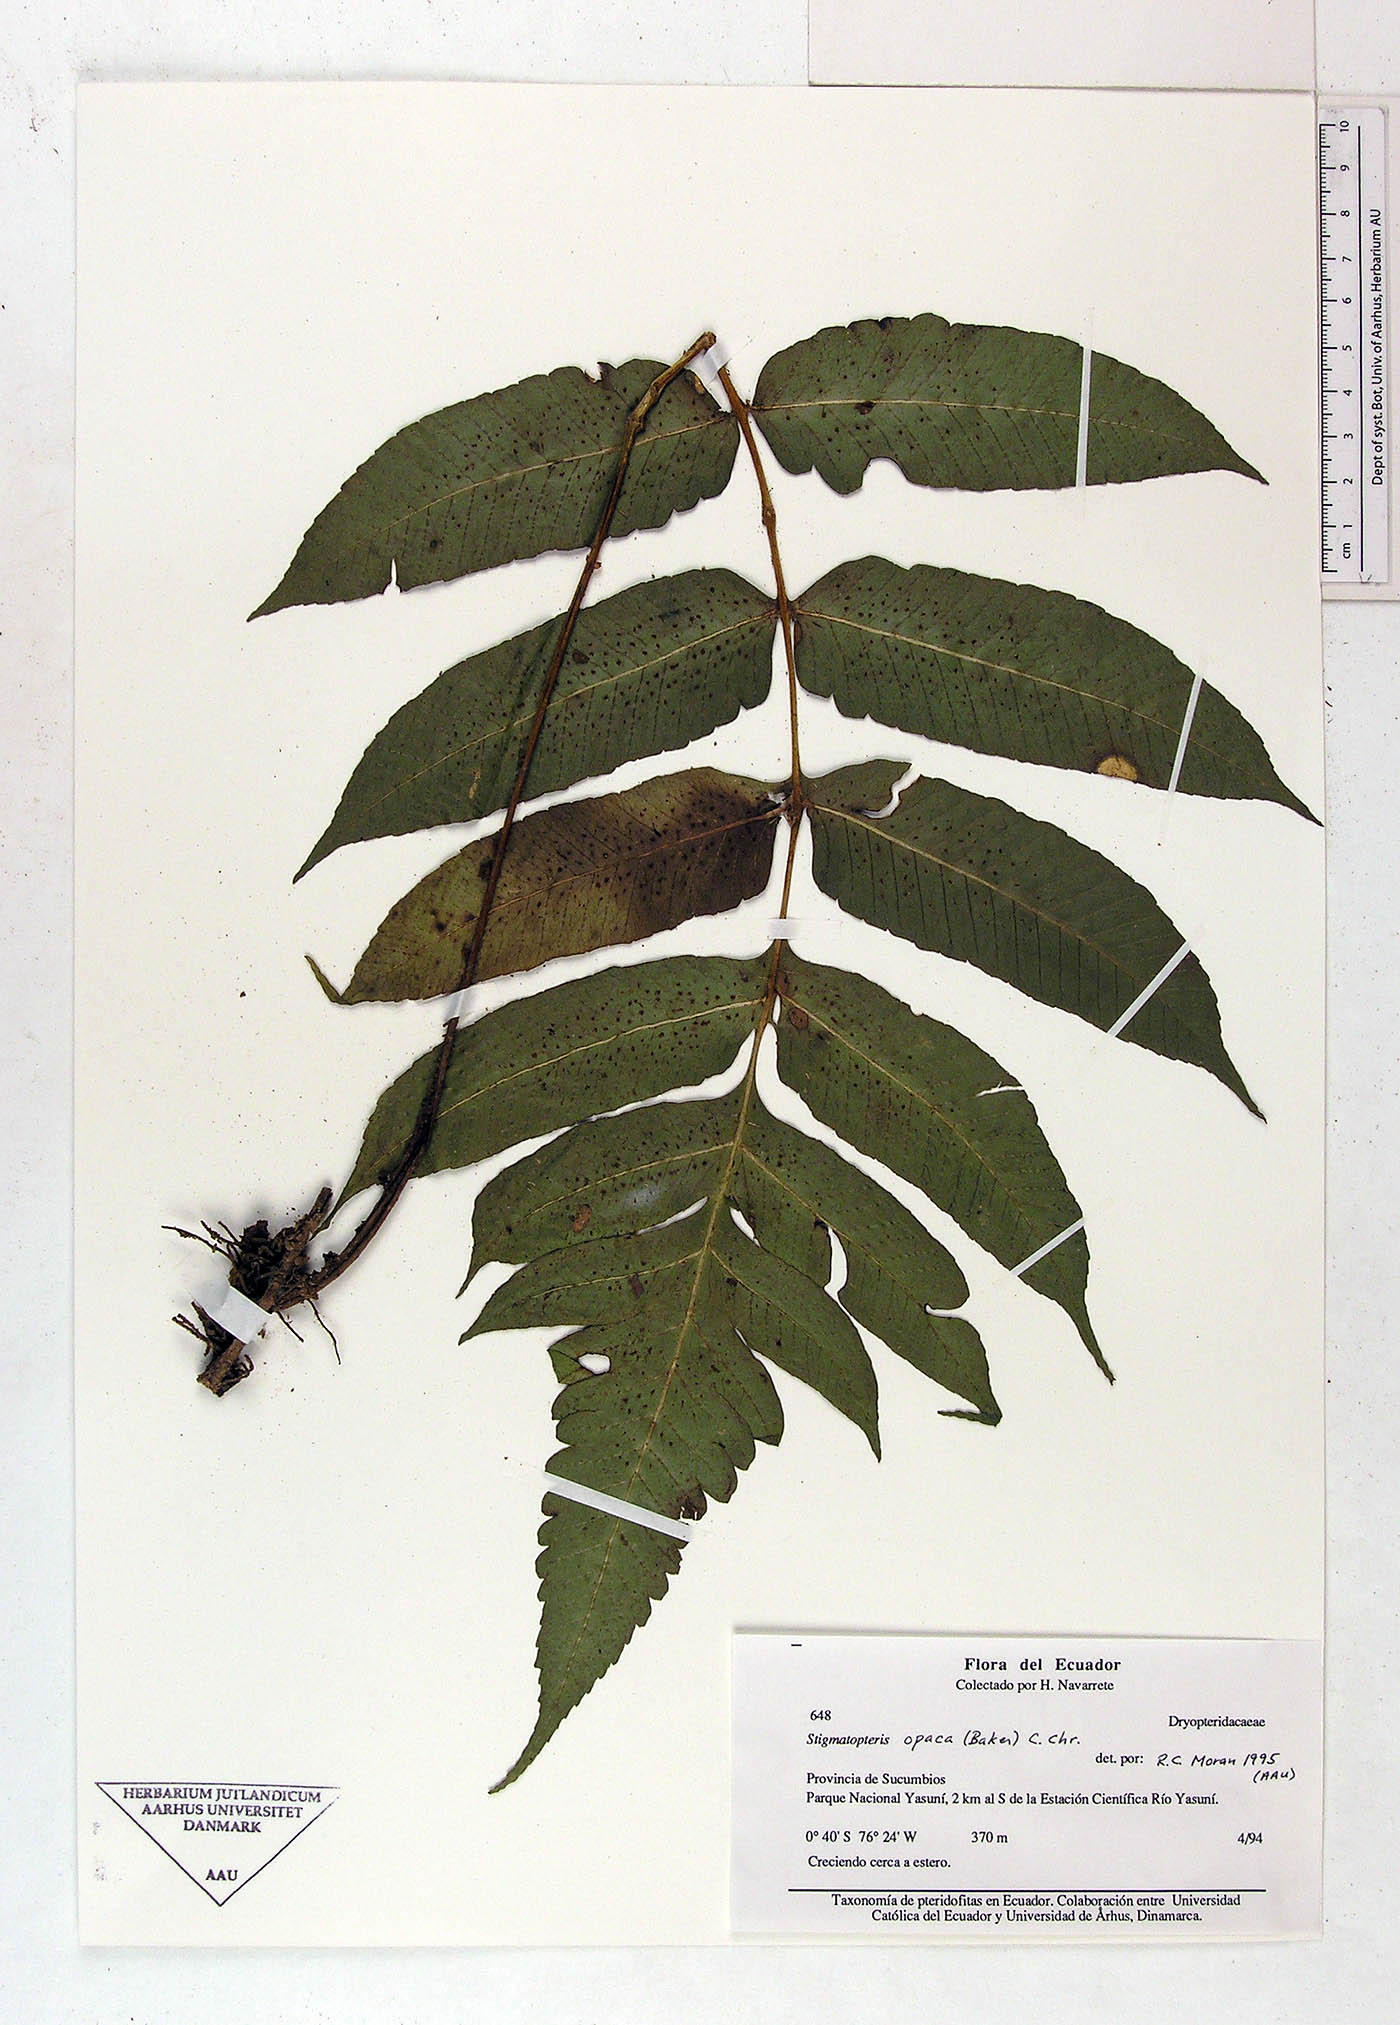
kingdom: Plantae
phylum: Tracheophyta
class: Polypodiopsida
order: Polypodiales
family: Dryopteridaceae
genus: Stigmatopteris
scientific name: Stigmatopteris
